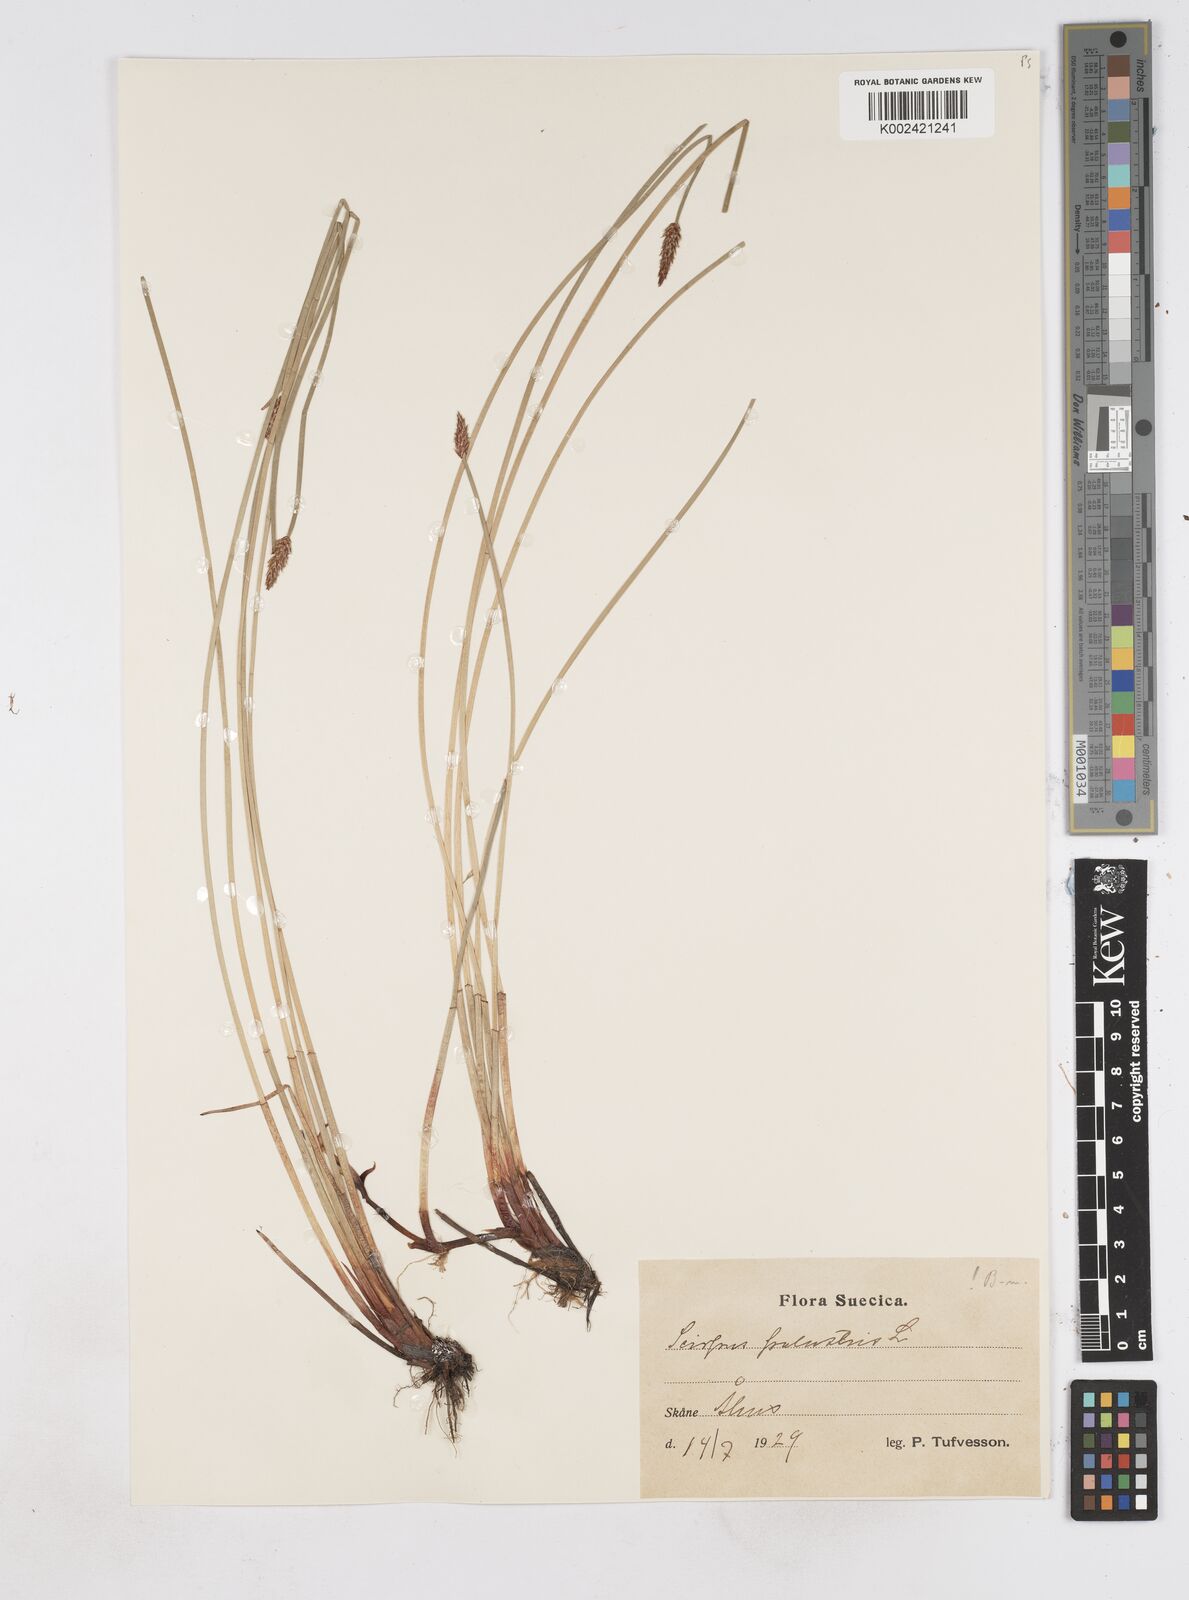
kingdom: Plantae
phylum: Tracheophyta
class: Liliopsida
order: Poales
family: Cyperaceae
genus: Eleocharis
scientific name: Eleocharis palustris
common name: Common spike-rush
